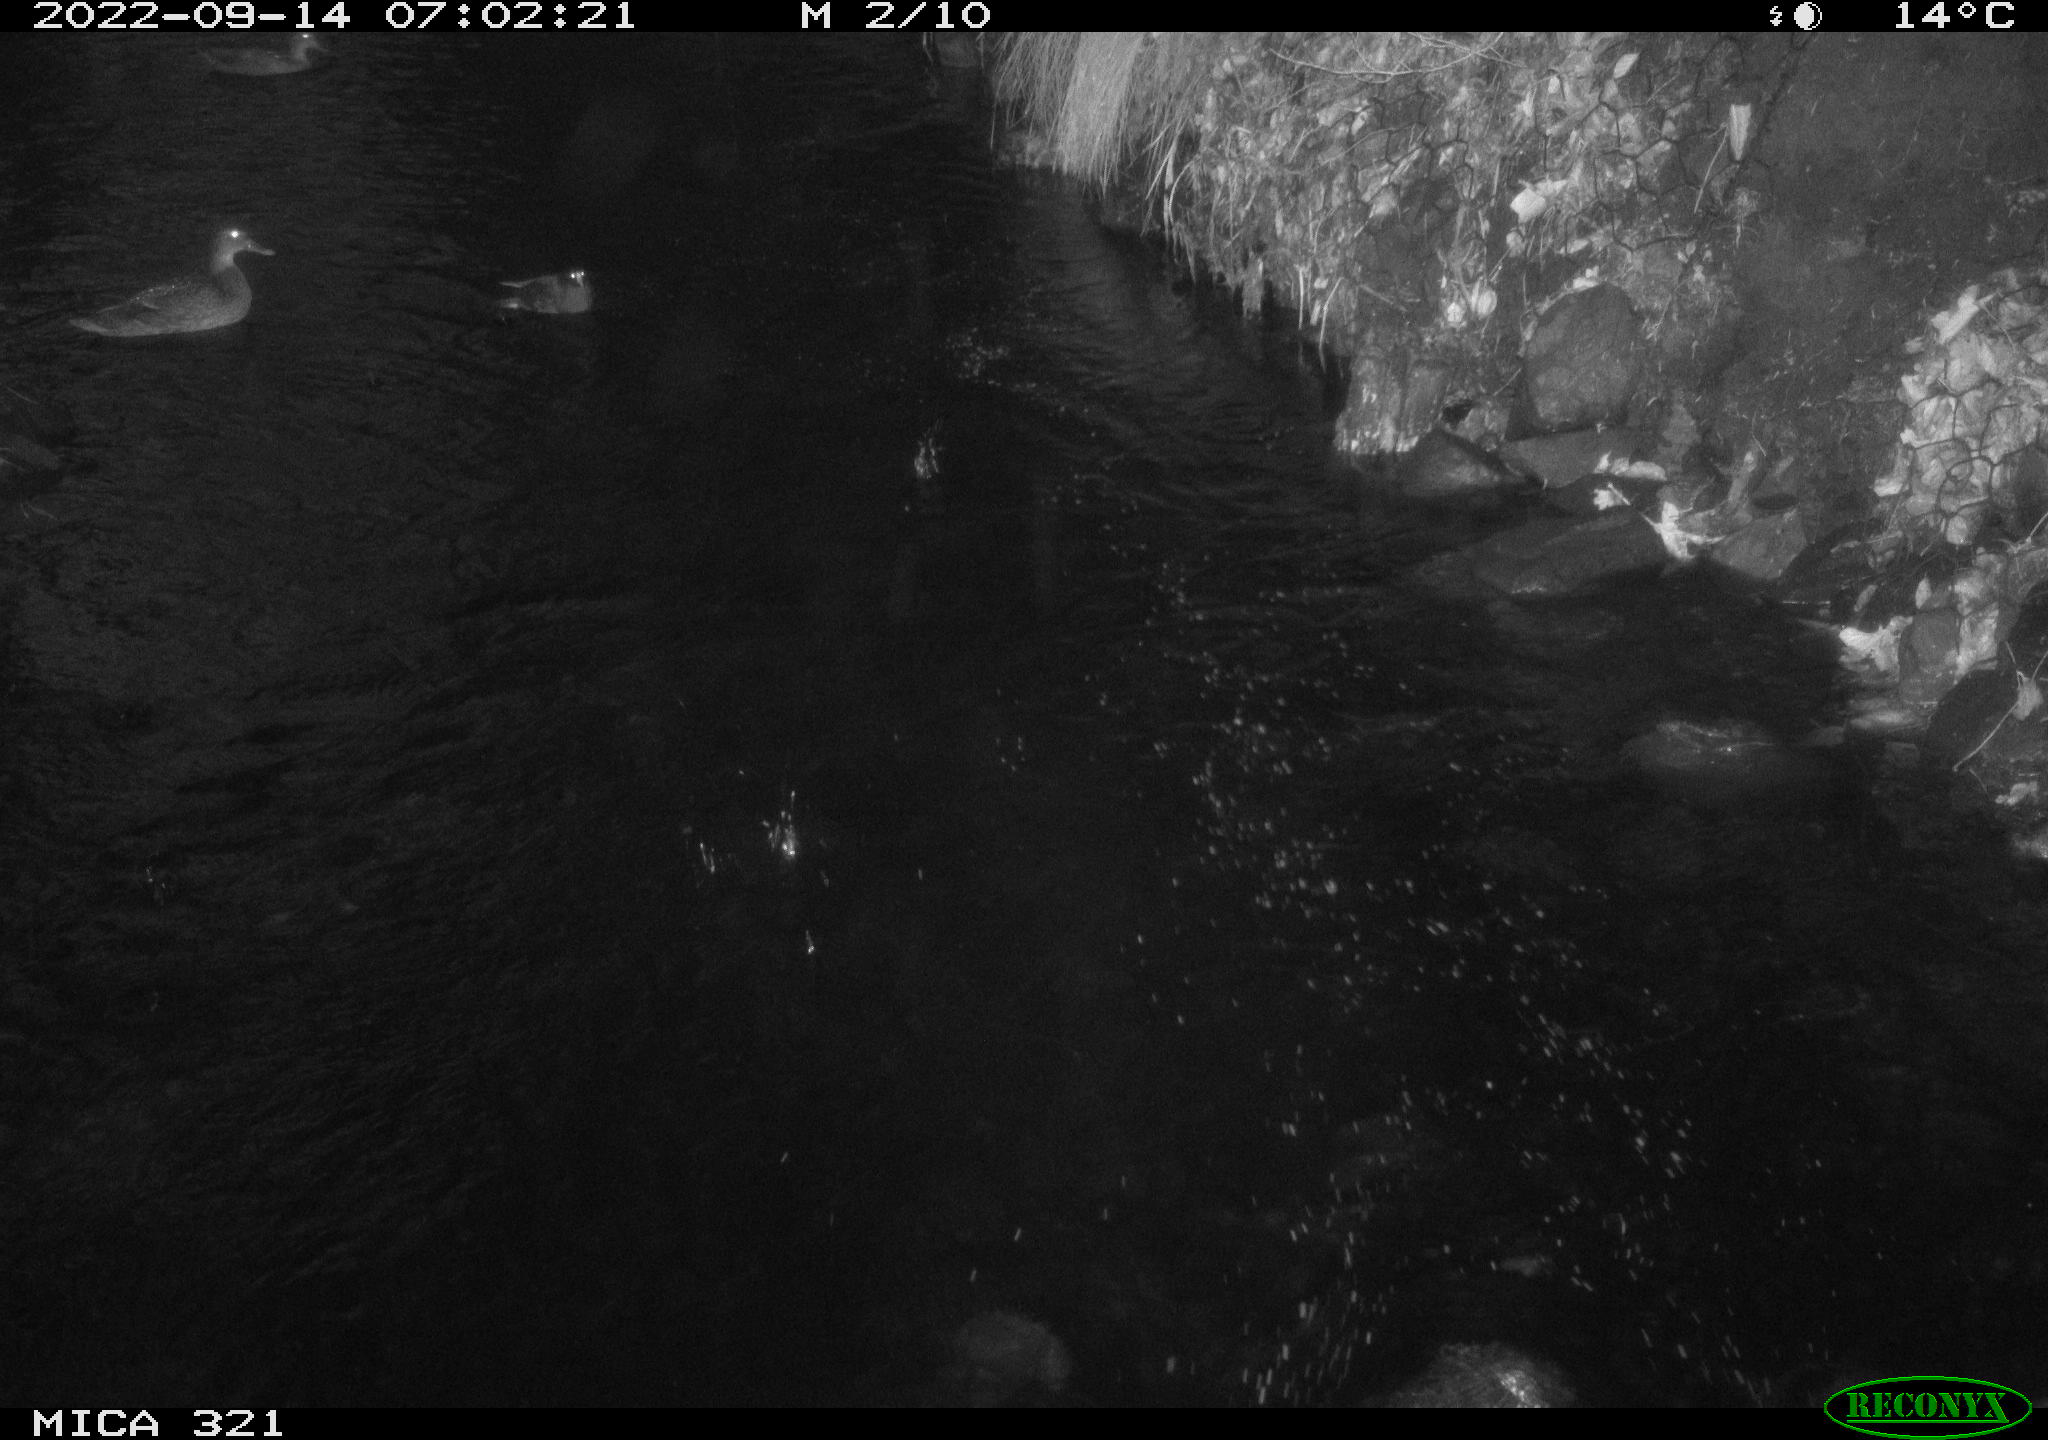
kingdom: Animalia
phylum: Chordata
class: Aves
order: Anseriformes
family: Anatidae
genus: Anas
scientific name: Anas
